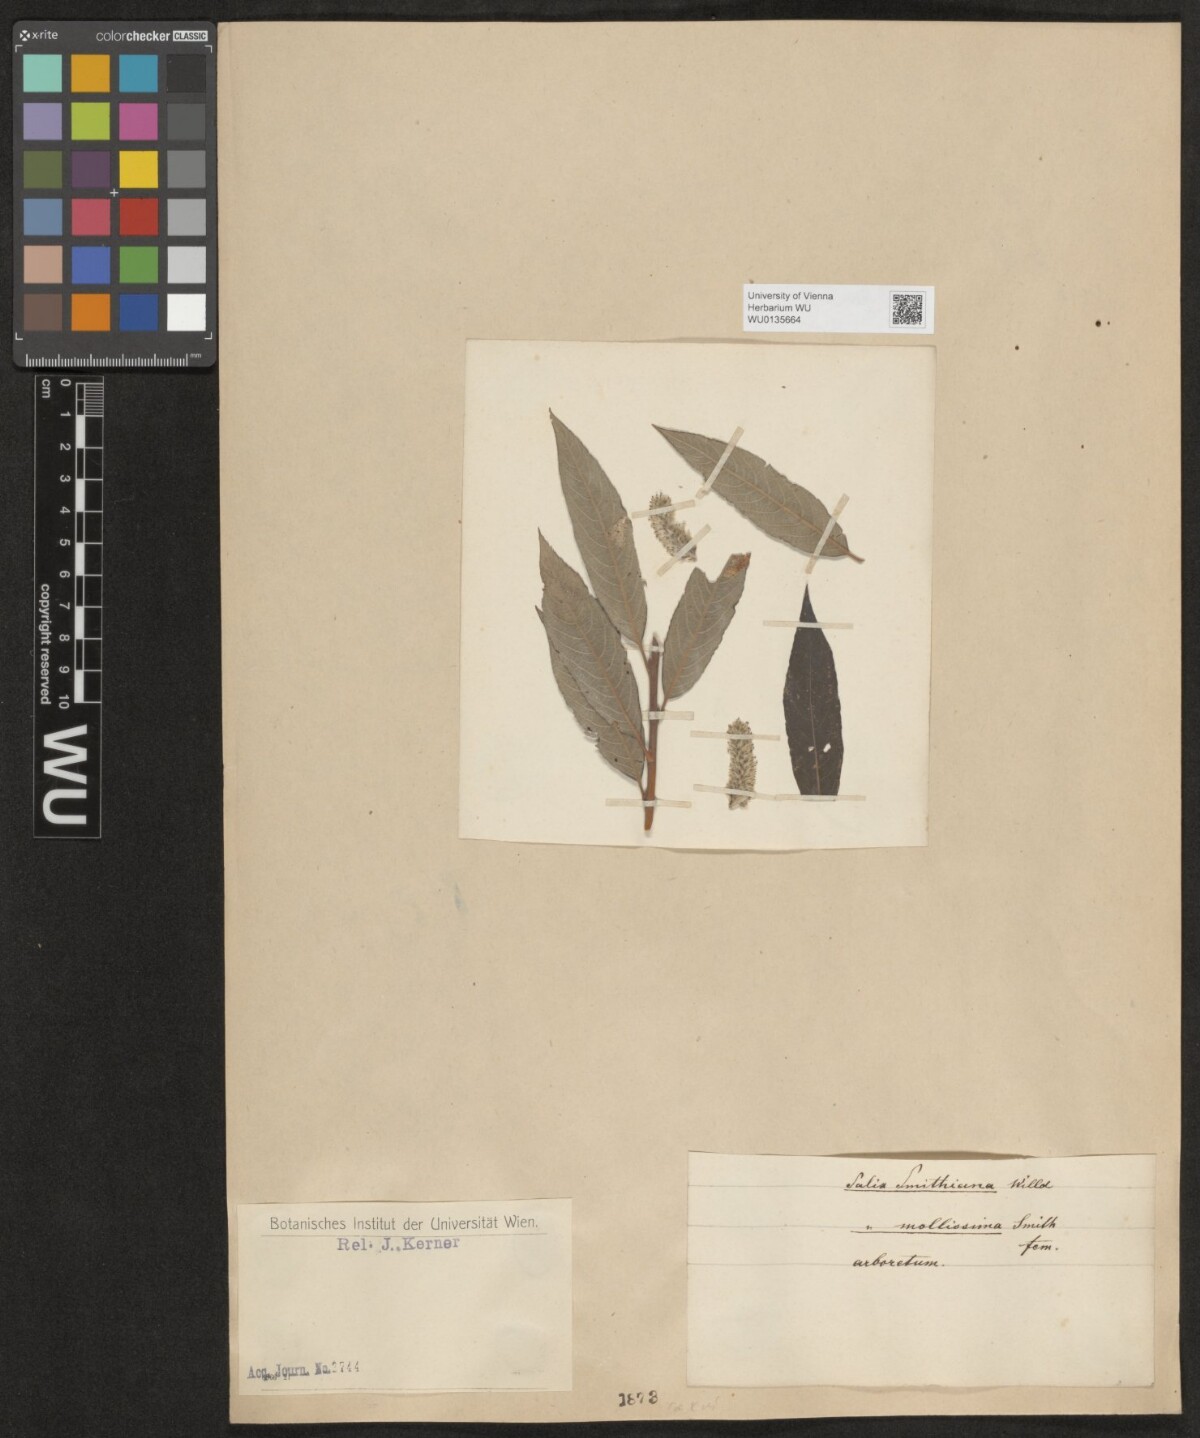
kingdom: Plantae
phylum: Tracheophyta
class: Magnoliopsida
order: Malpighiales
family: Salicaceae
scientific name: Salicaceae
